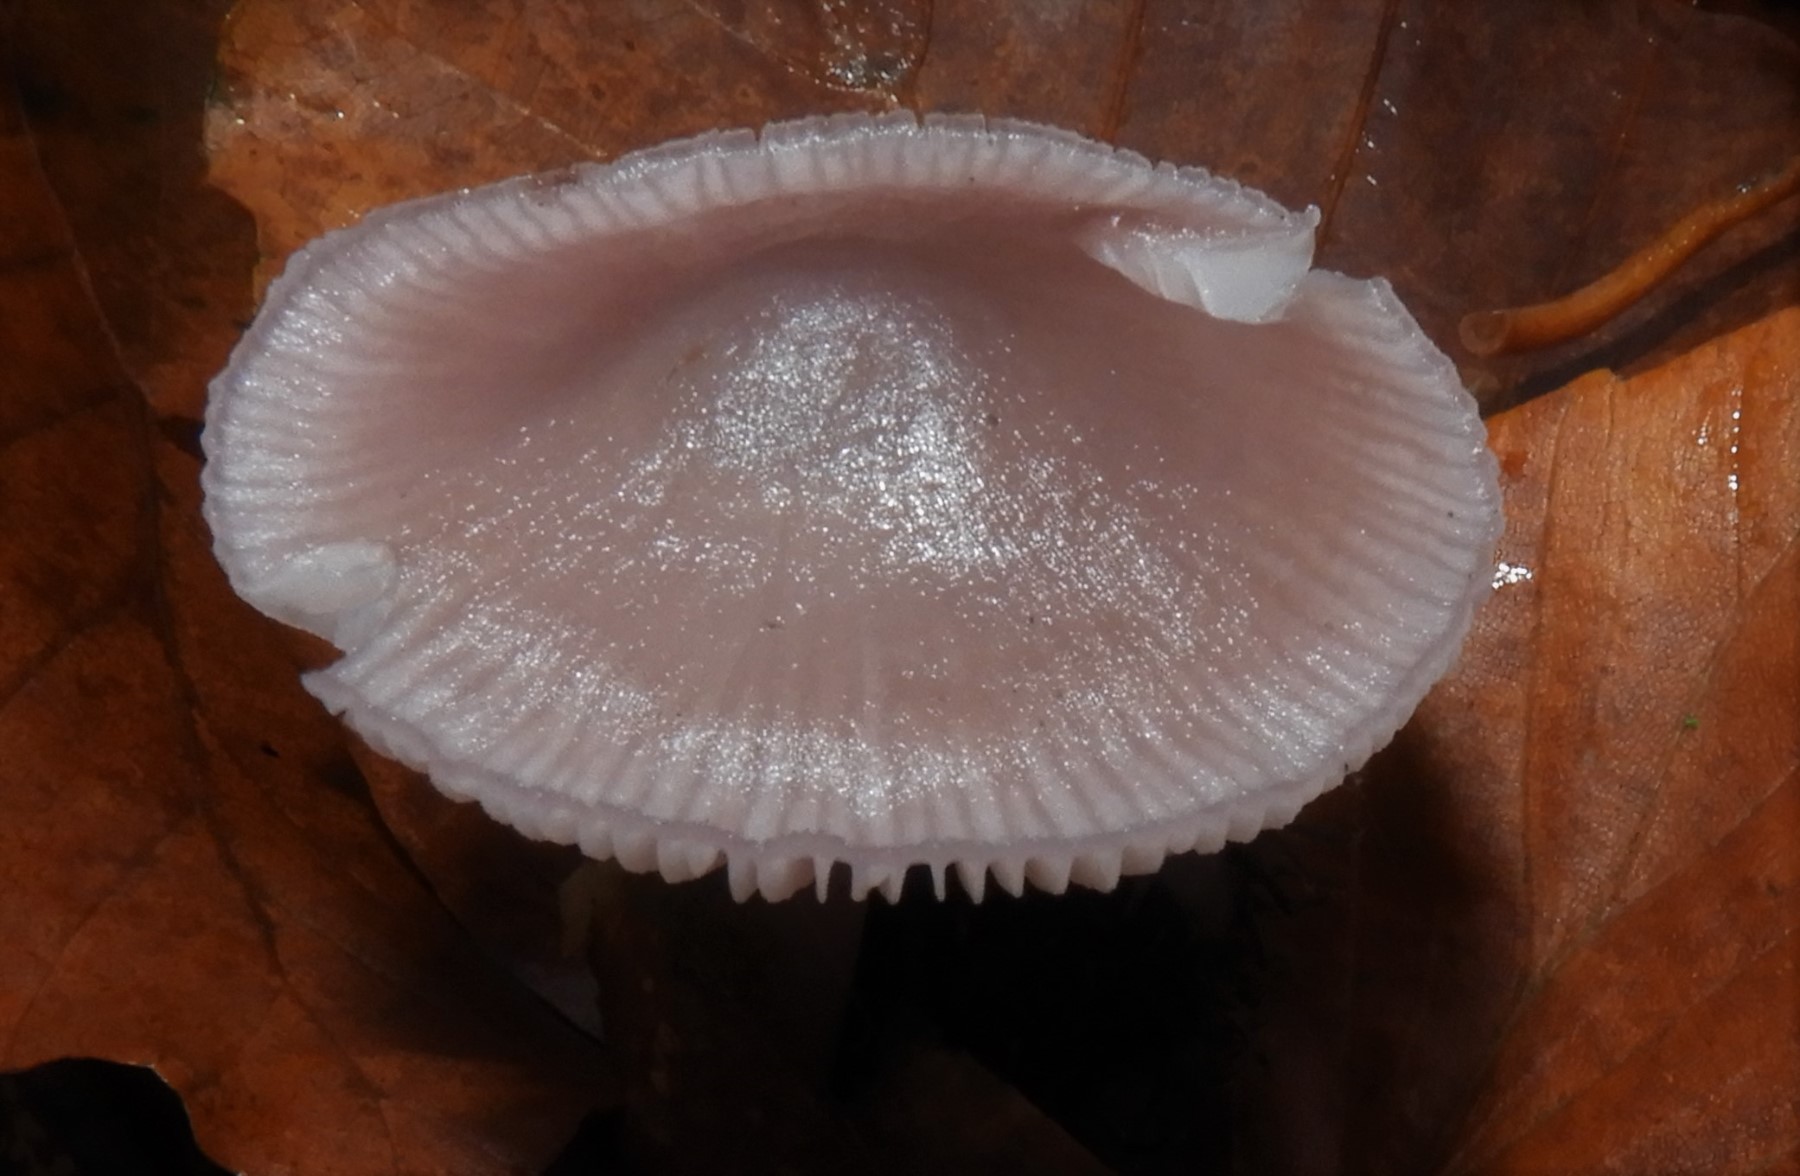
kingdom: Fungi
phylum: Basidiomycota
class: Agaricomycetes
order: Agaricales
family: Mycenaceae
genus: Mycena
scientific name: Mycena rosea
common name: rosa huesvamp
